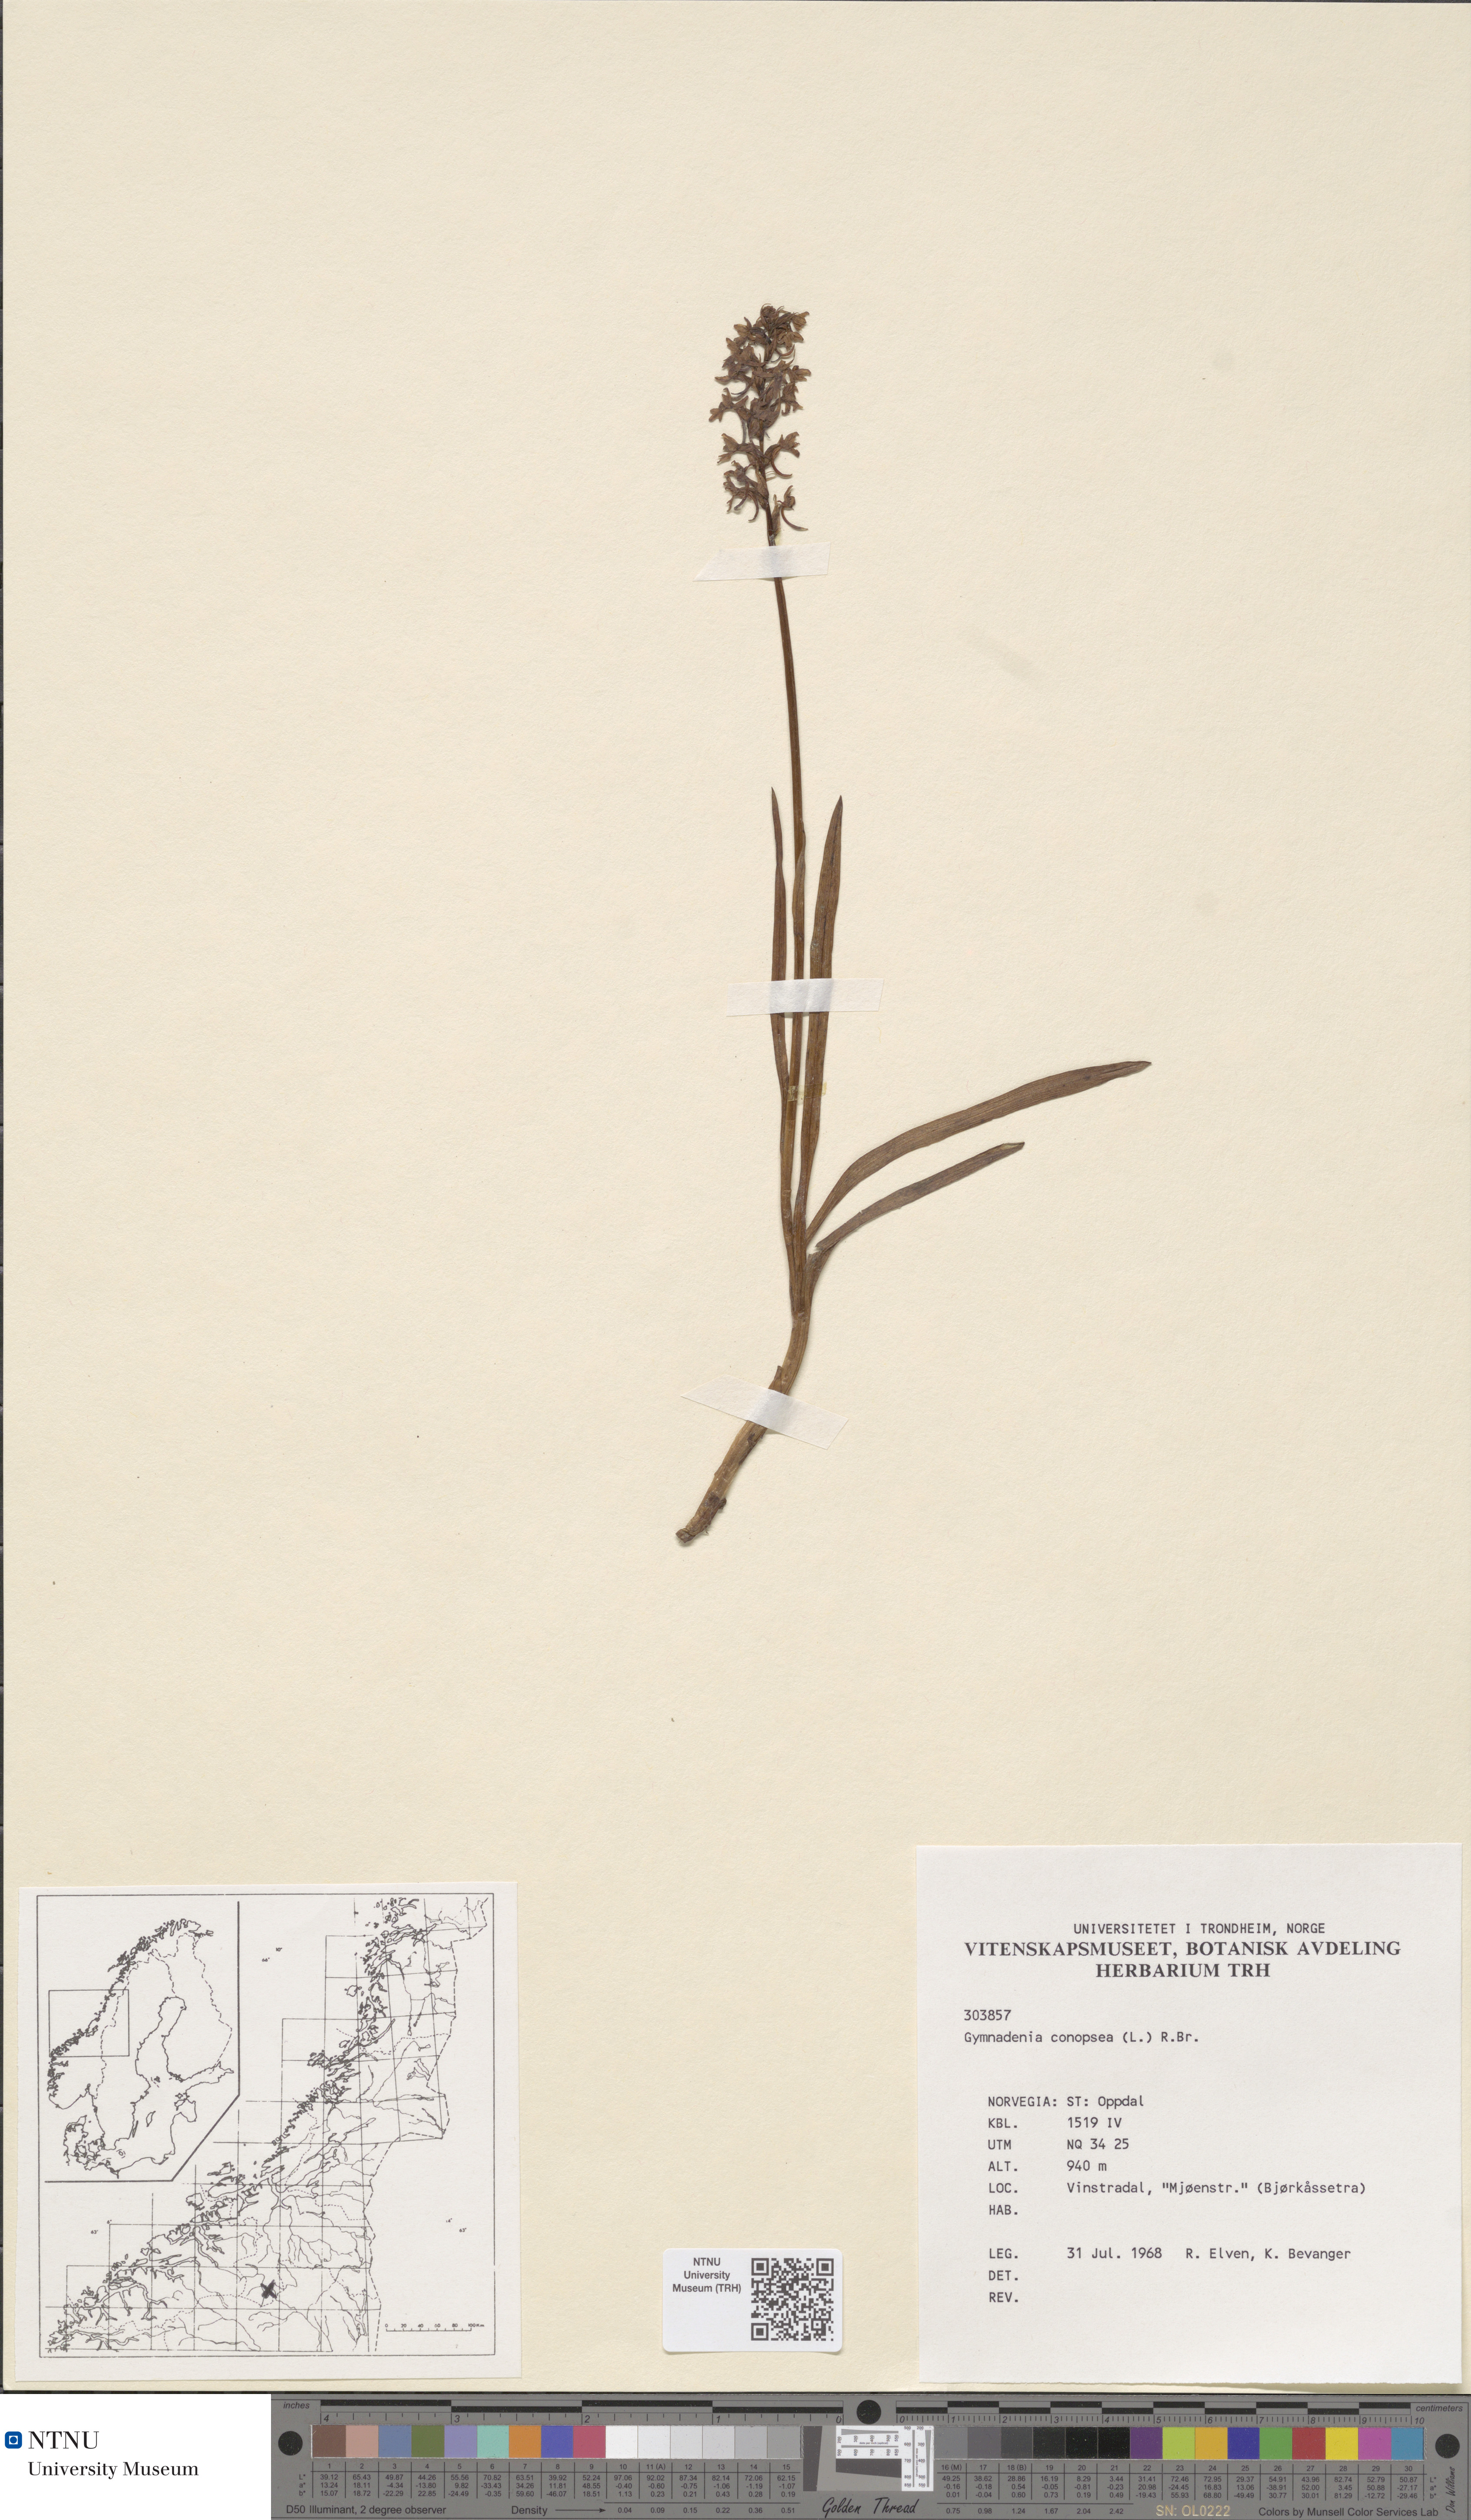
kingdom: Plantae
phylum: Tracheophyta
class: Liliopsida
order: Asparagales
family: Orchidaceae
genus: Gymnadenia
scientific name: Gymnadenia conopsea
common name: Fragrant orchid
